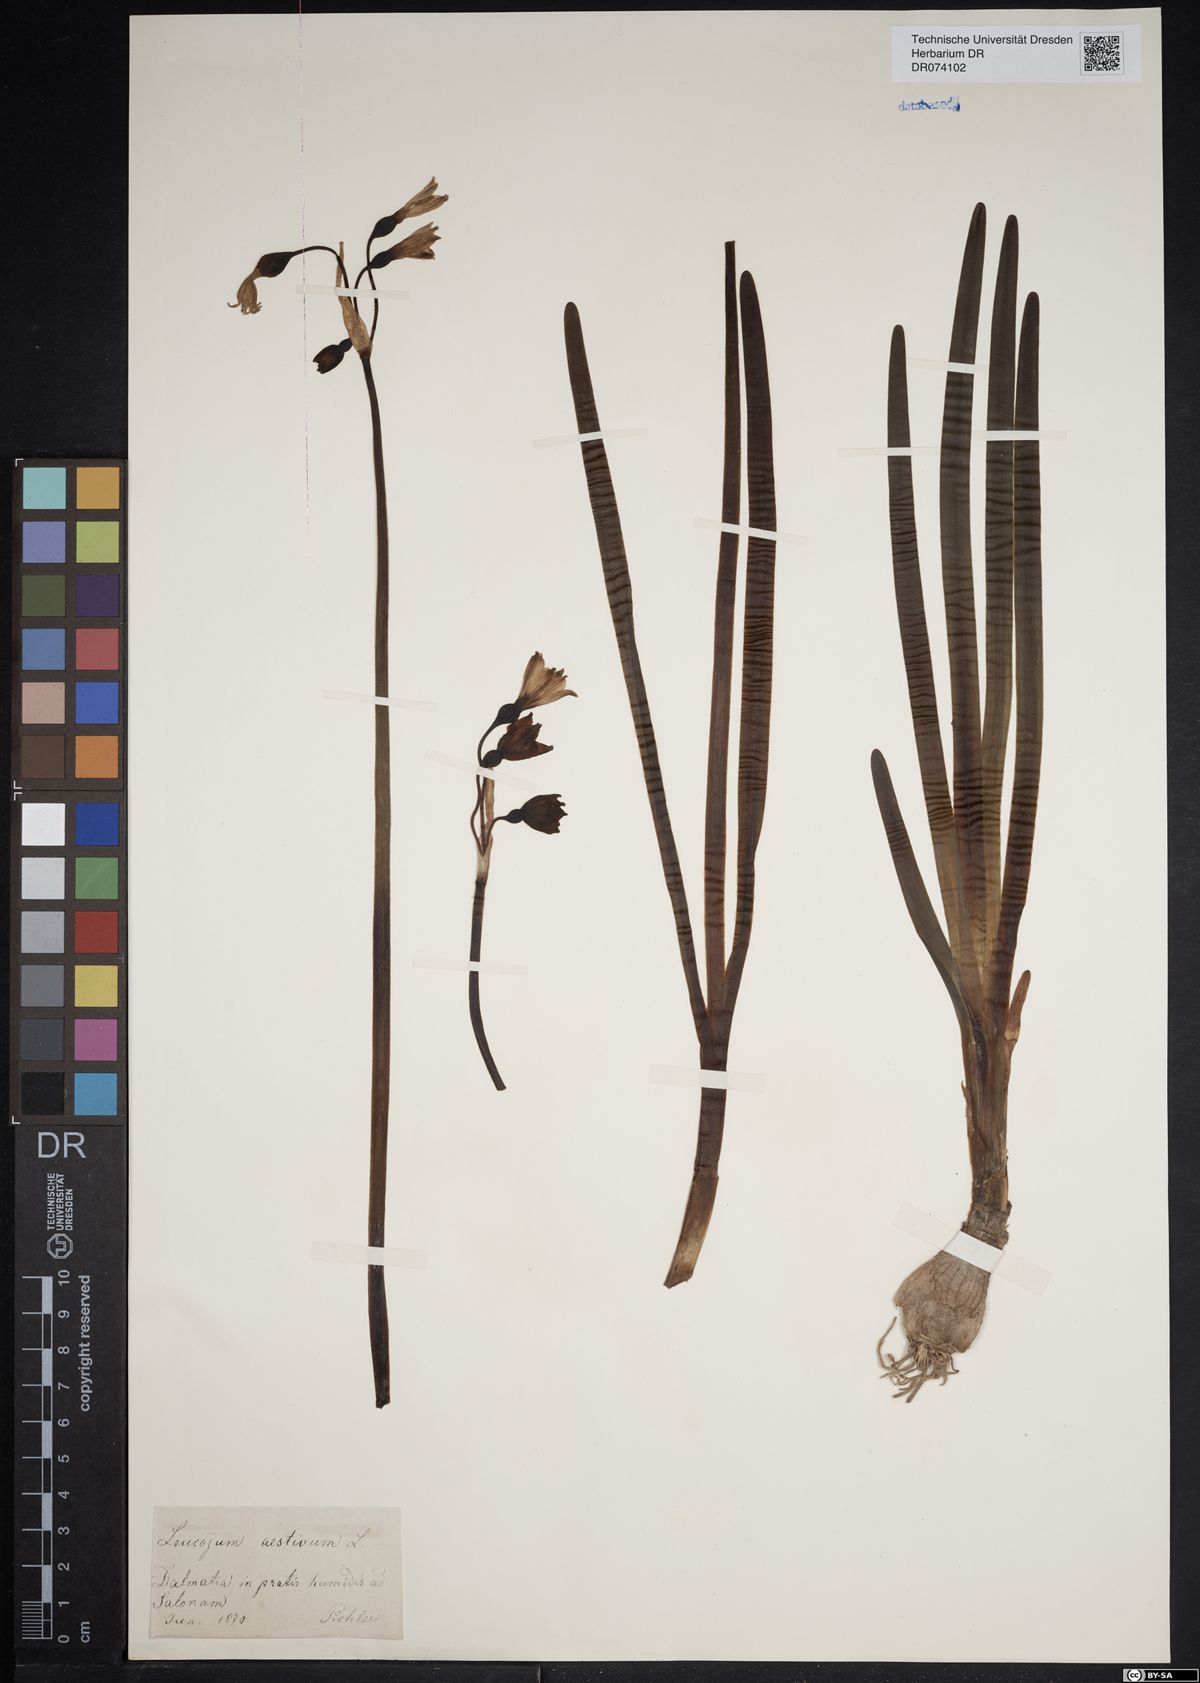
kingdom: Plantae
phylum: Tracheophyta
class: Liliopsida
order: Asparagales
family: Amaryllidaceae
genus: Leucojum
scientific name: Leucojum aestivum
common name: Summer snowflake
